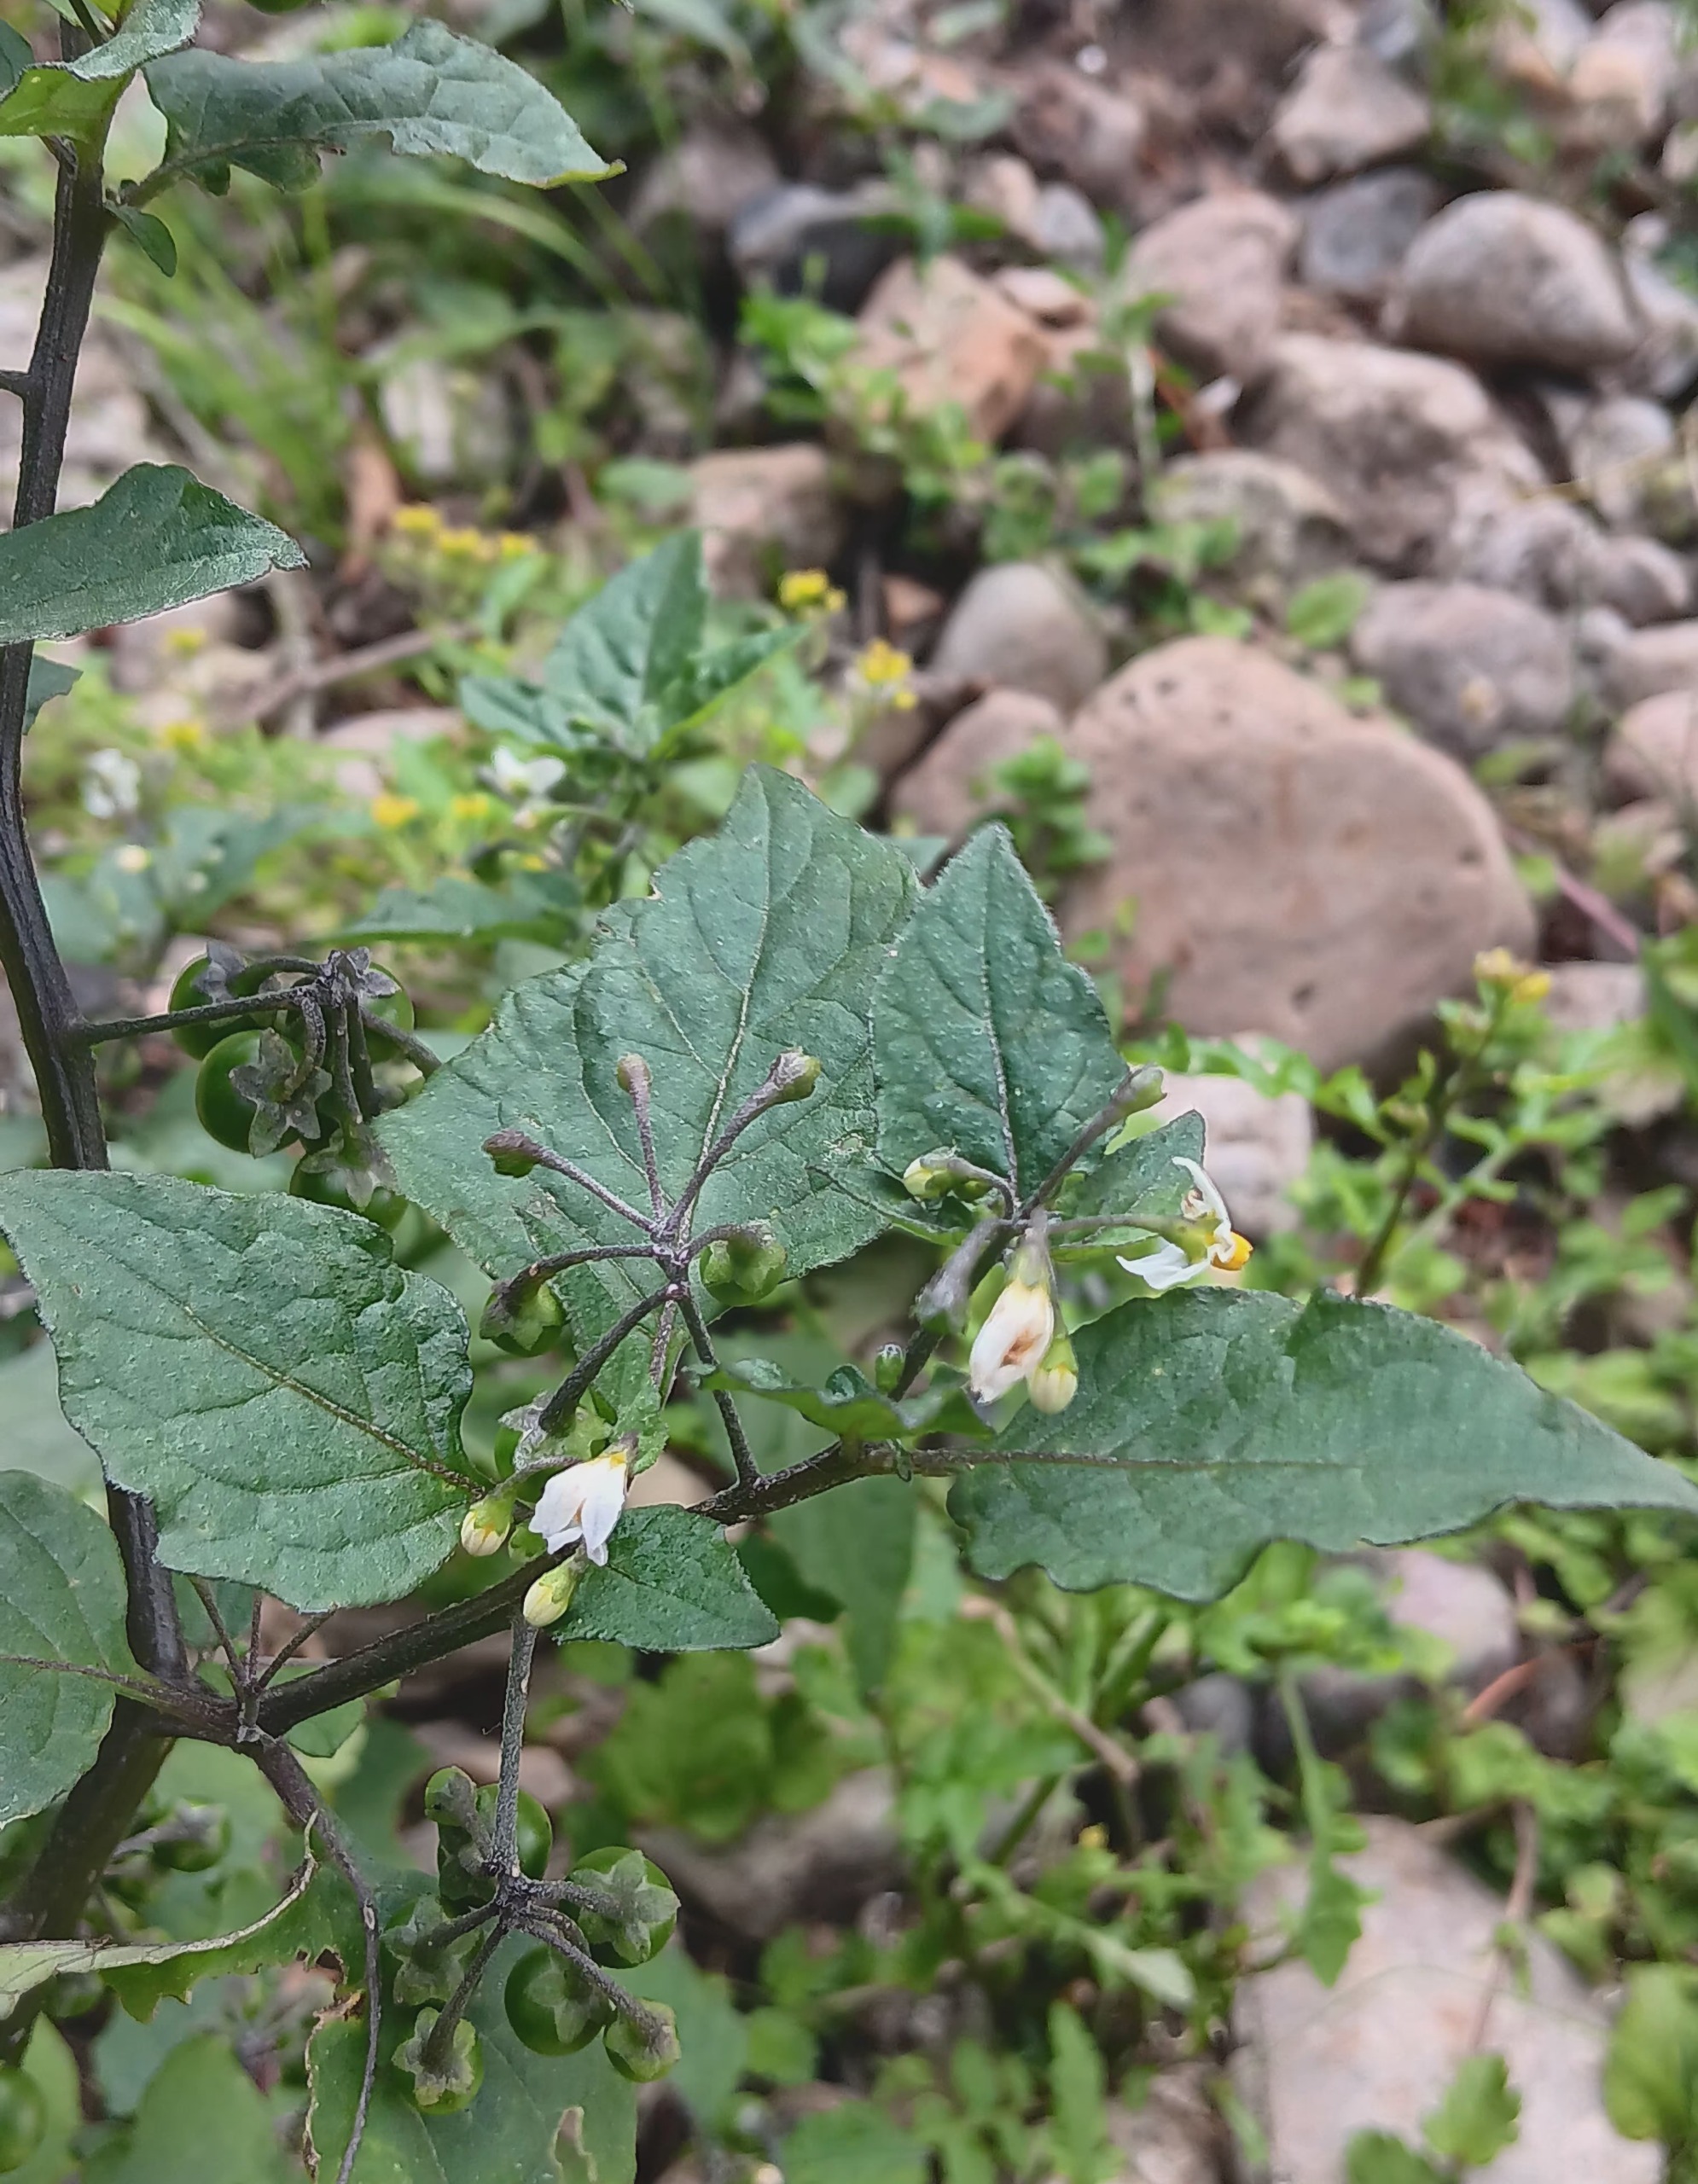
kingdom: Plantae
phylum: Tracheophyta
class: Magnoliopsida
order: Solanales
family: Solanaceae
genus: Solanum
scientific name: Solanum nigrum
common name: Sort natskygge (underart)
